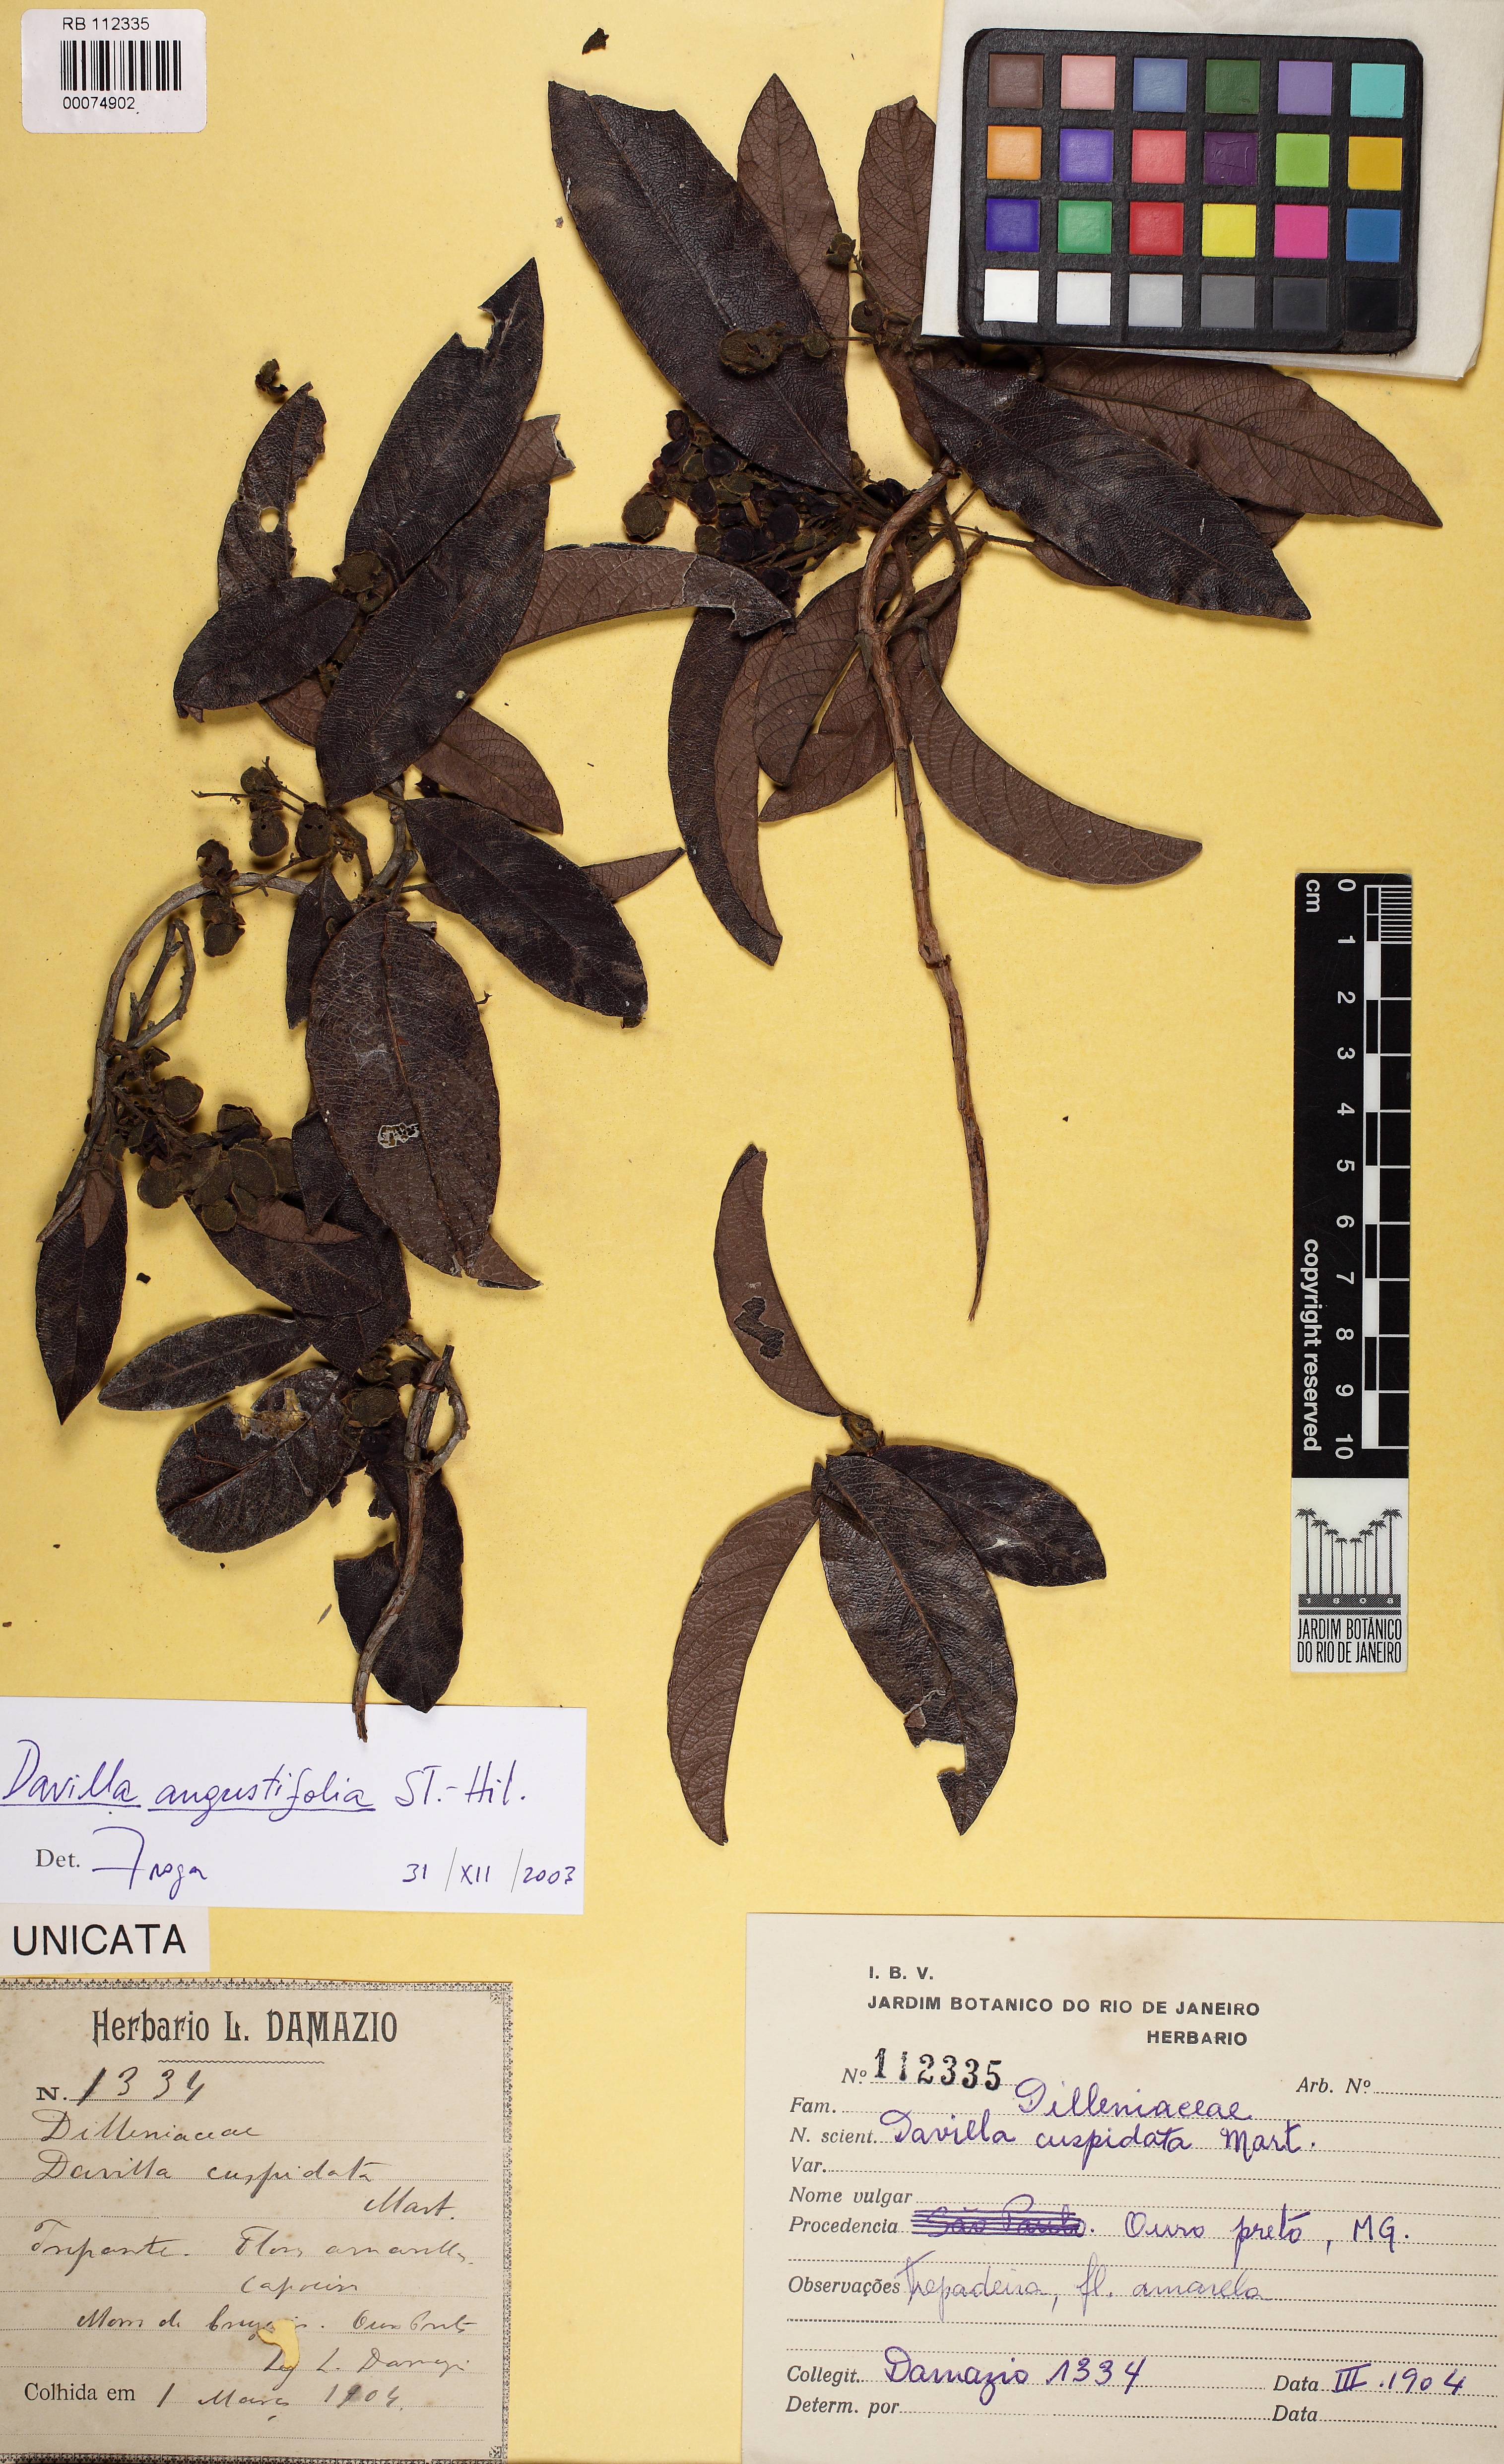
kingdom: Plantae
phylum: Tracheophyta
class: Magnoliopsida
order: Dilleniales
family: Dilleniaceae
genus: Davilla
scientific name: Davilla angustifolia
